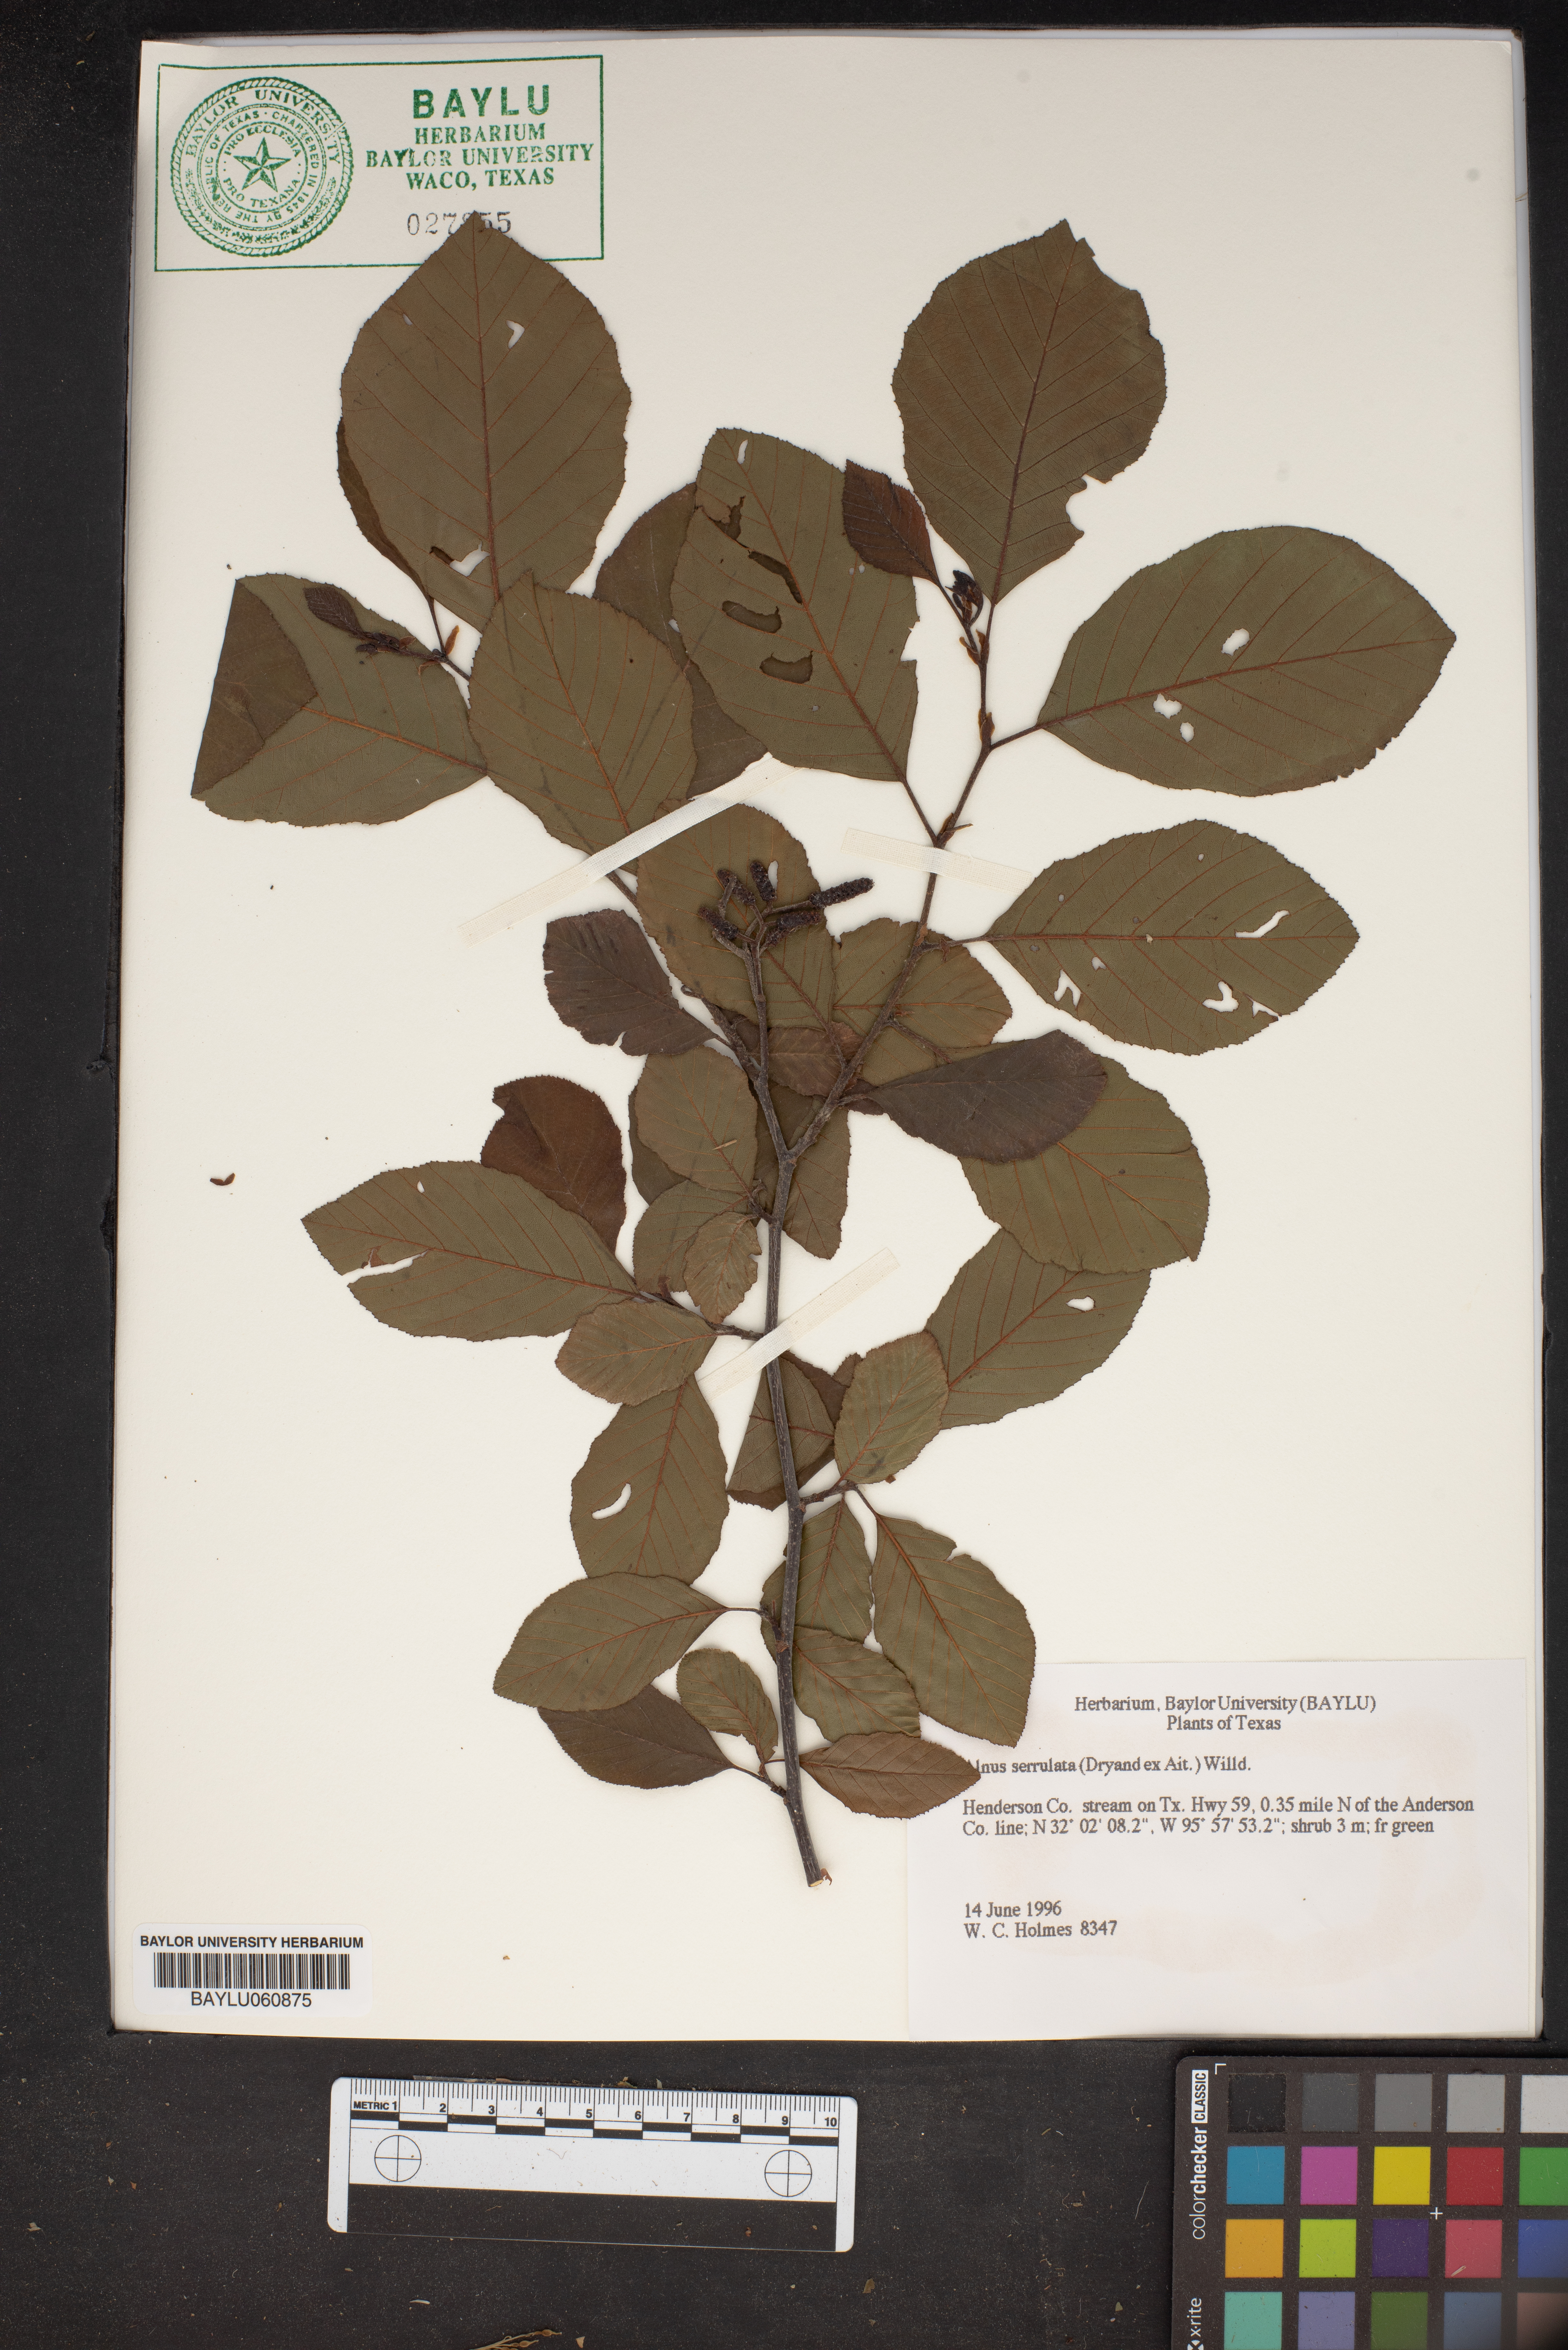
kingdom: Plantae
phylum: Tracheophyta
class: Magnoliopsida
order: Fagales
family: Betulaceae
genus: Alnus
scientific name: Alnus serrulata
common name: Hazel alder
